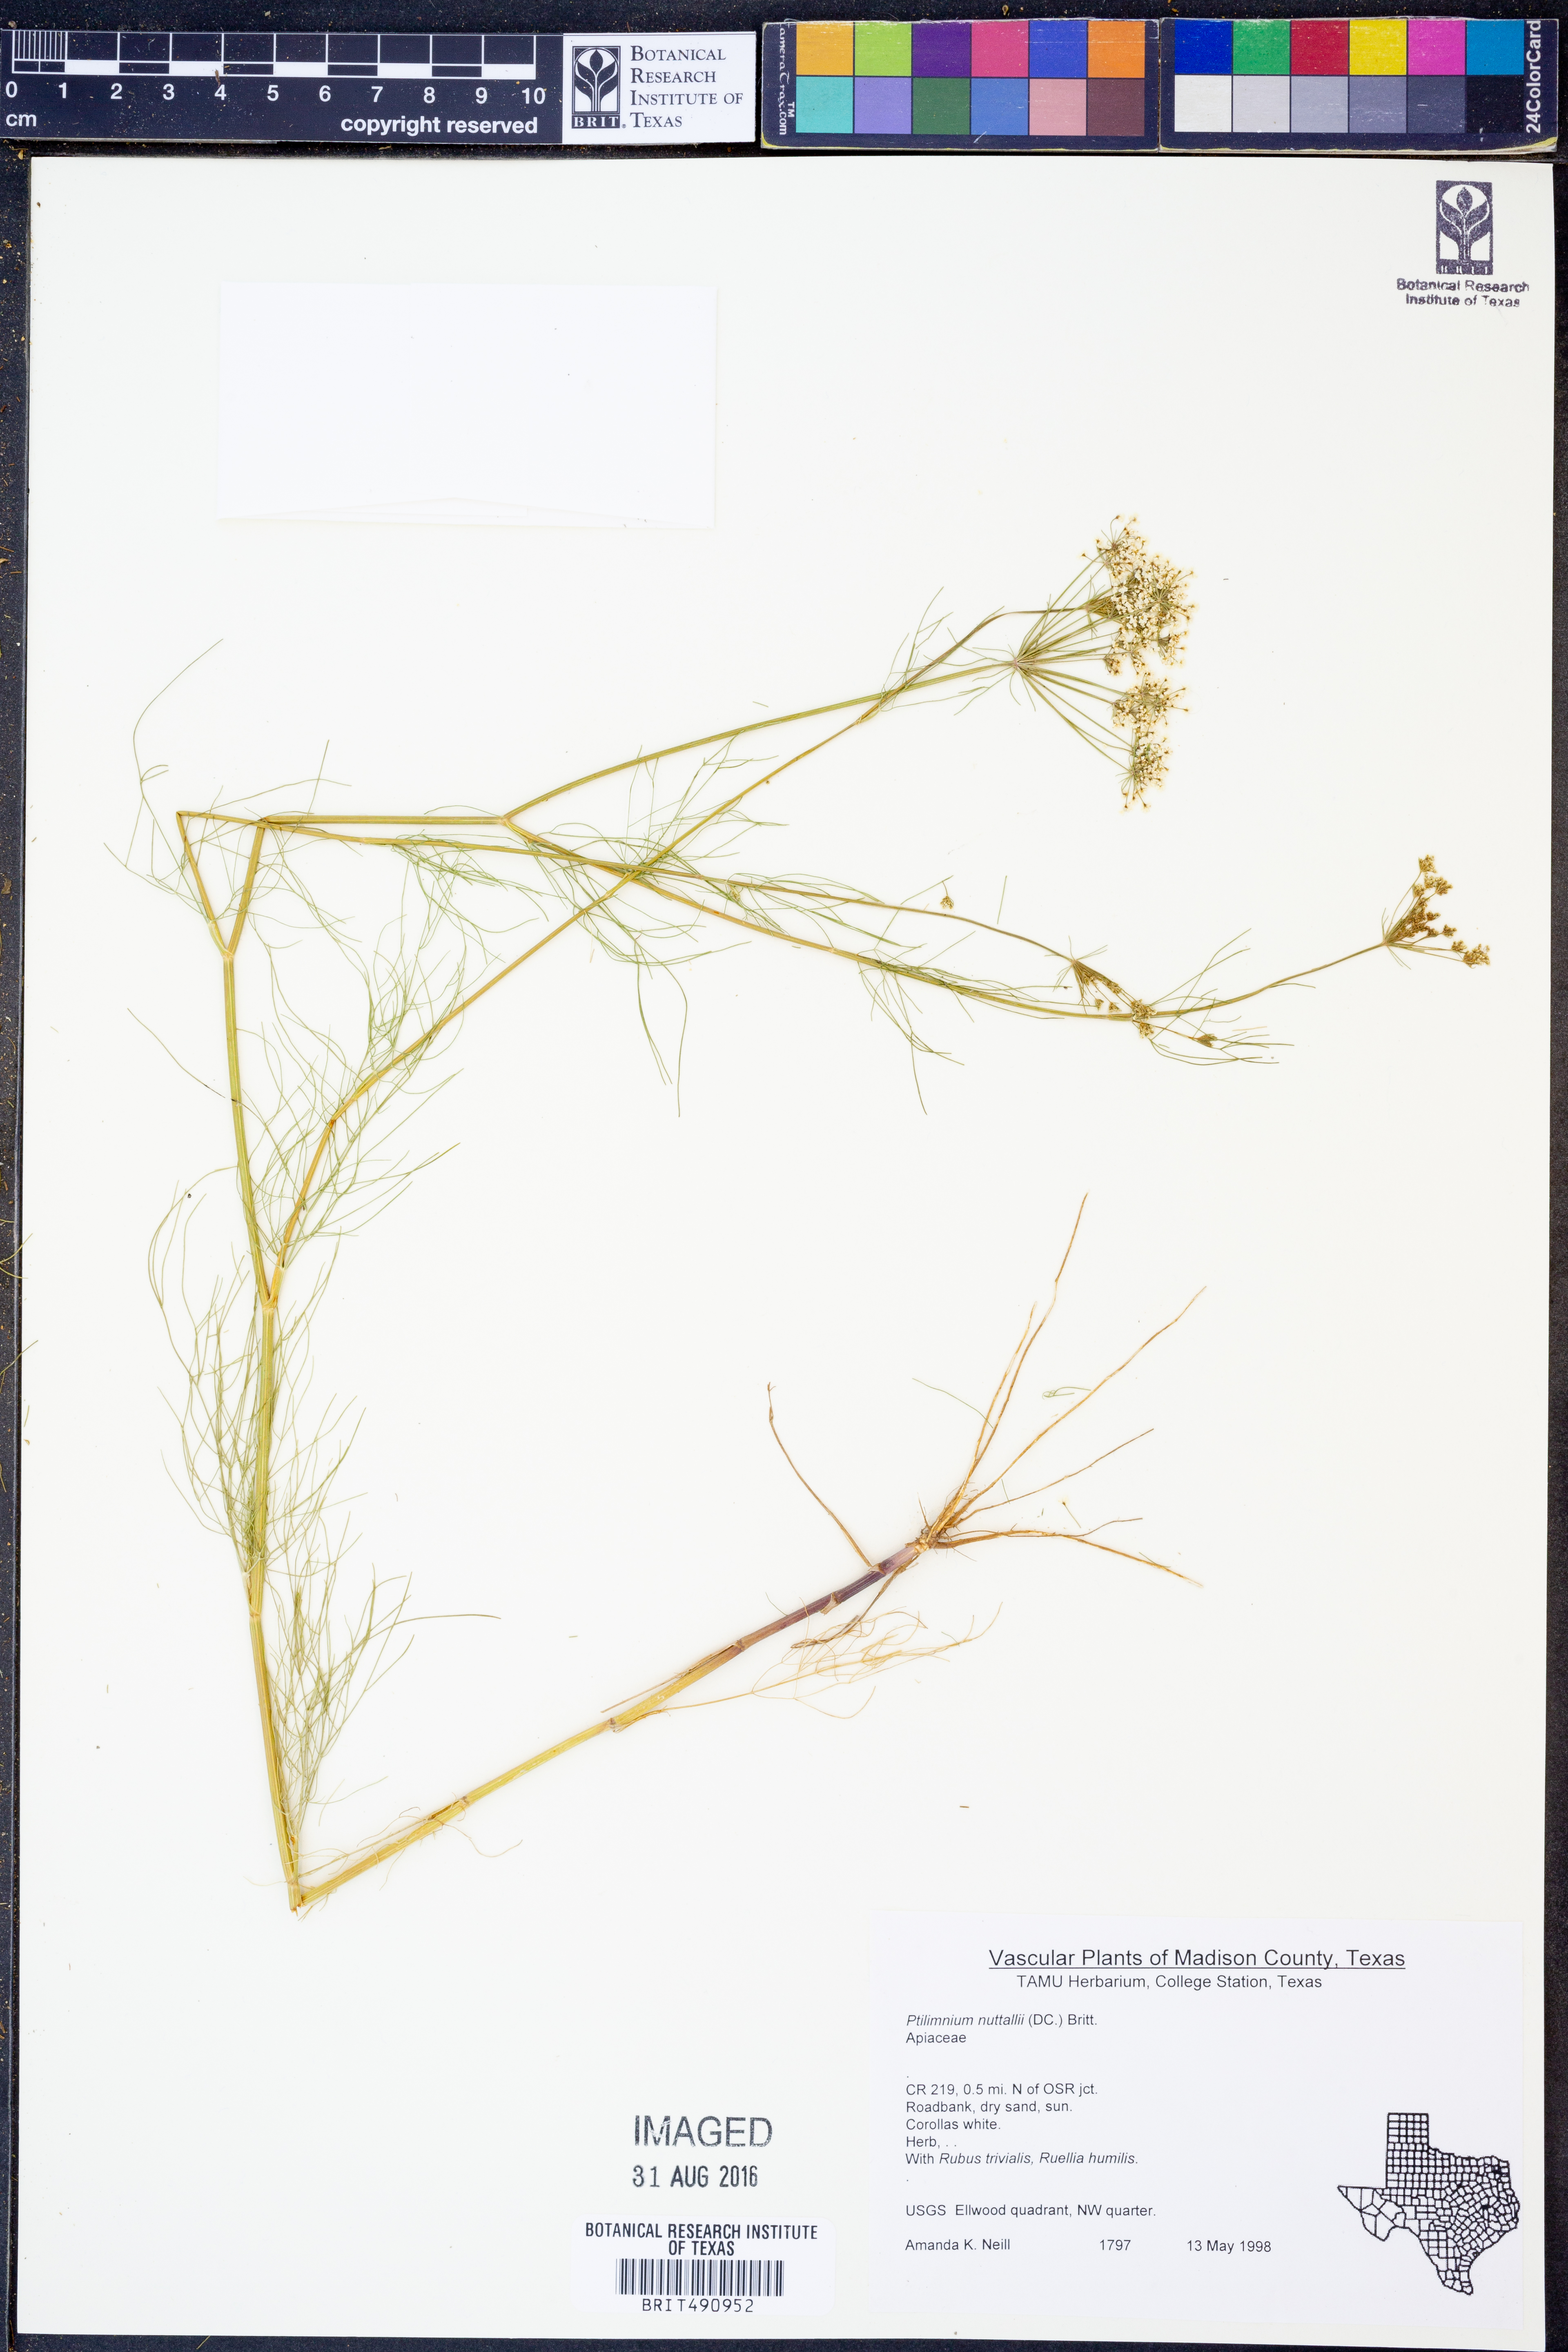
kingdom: Plantae
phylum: Tracheophyta
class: Magnoliopsida
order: Apiales
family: Apiaceae
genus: Ptilimnium
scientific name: Ptilimnium nuttallii
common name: Ozark bishop's-weed
